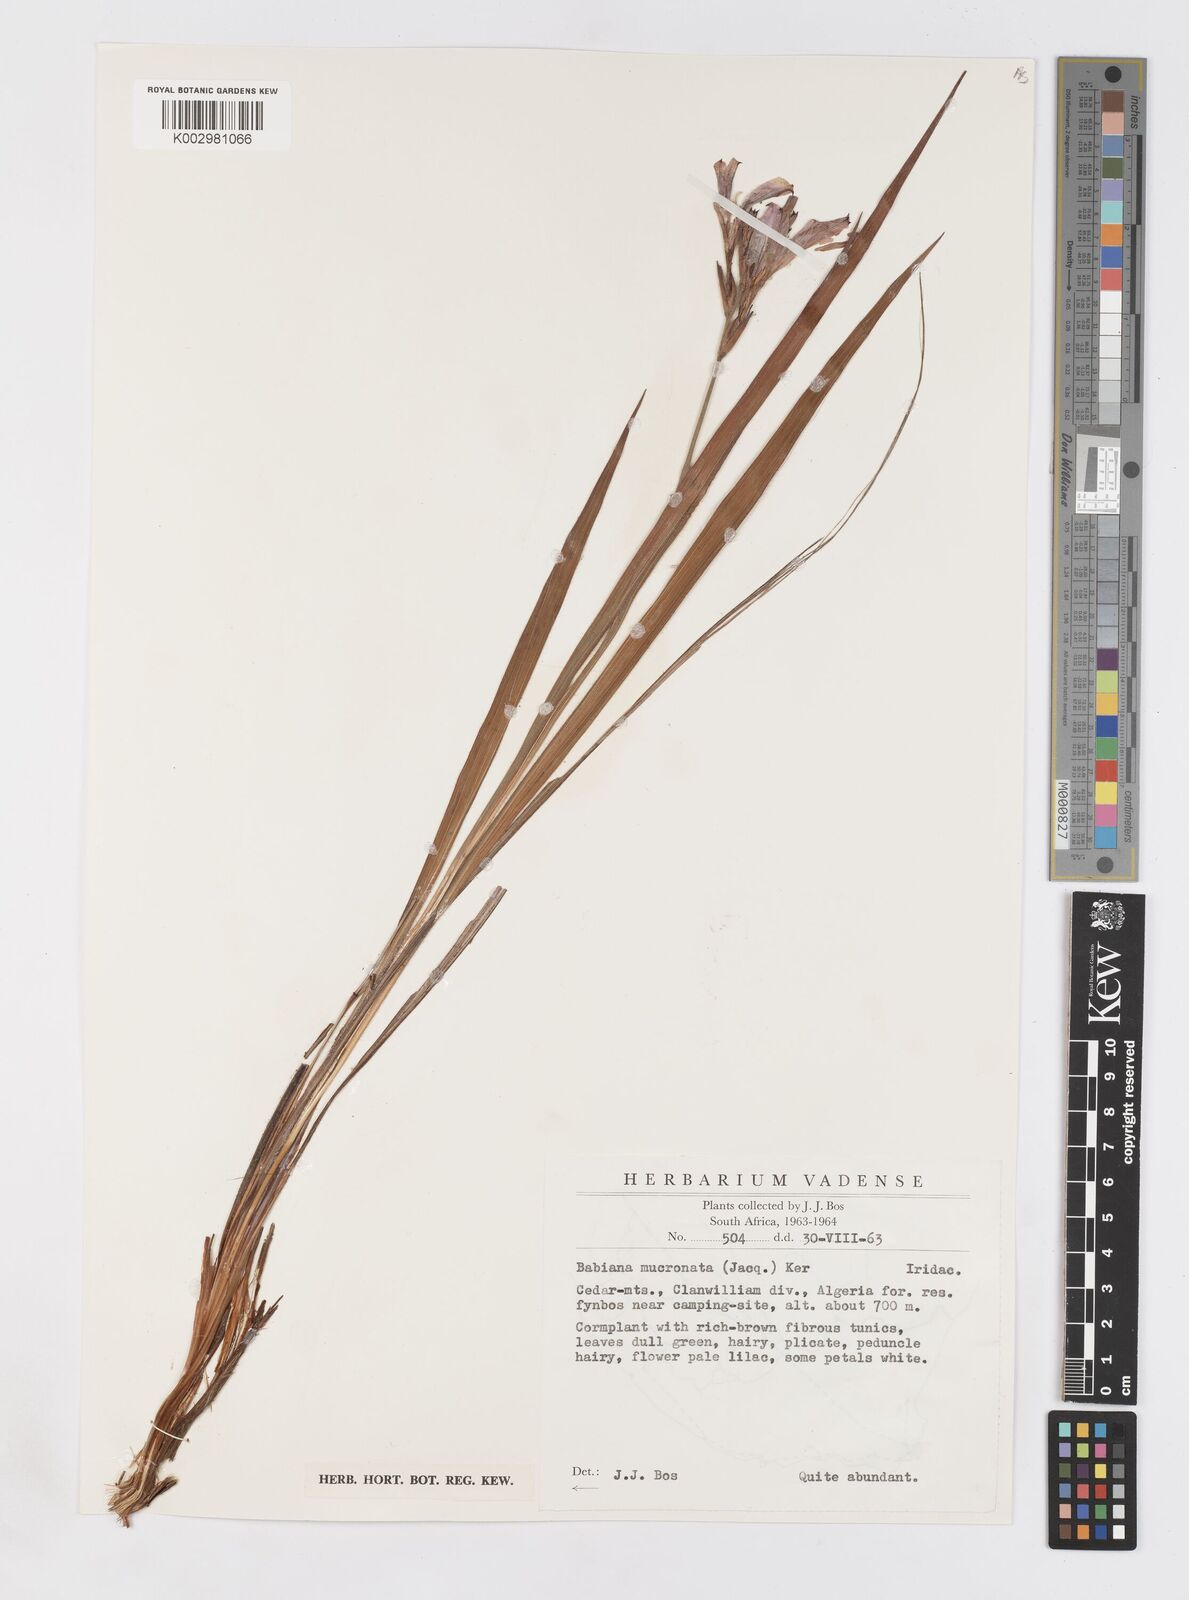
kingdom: Plantae
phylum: Tracheophyta
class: Liliopsida
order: Asparagales
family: Iridaceae
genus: Babiana
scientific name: Babiana mucronata
